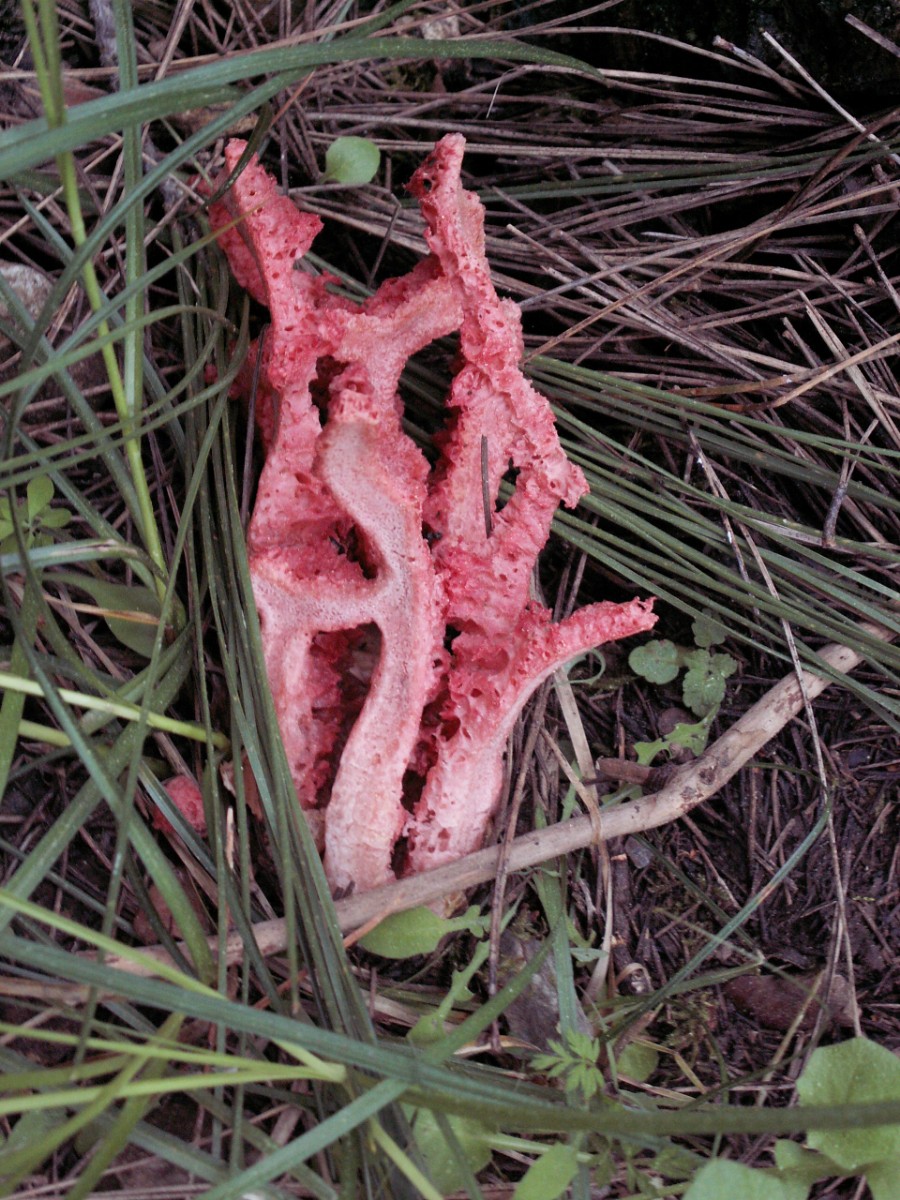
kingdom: Fungi
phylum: Basidiomycota
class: Agaricomycetes
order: Phallales
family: Phallaceae
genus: Clathrus
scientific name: Clathrus ruber
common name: rød gitterkugle
